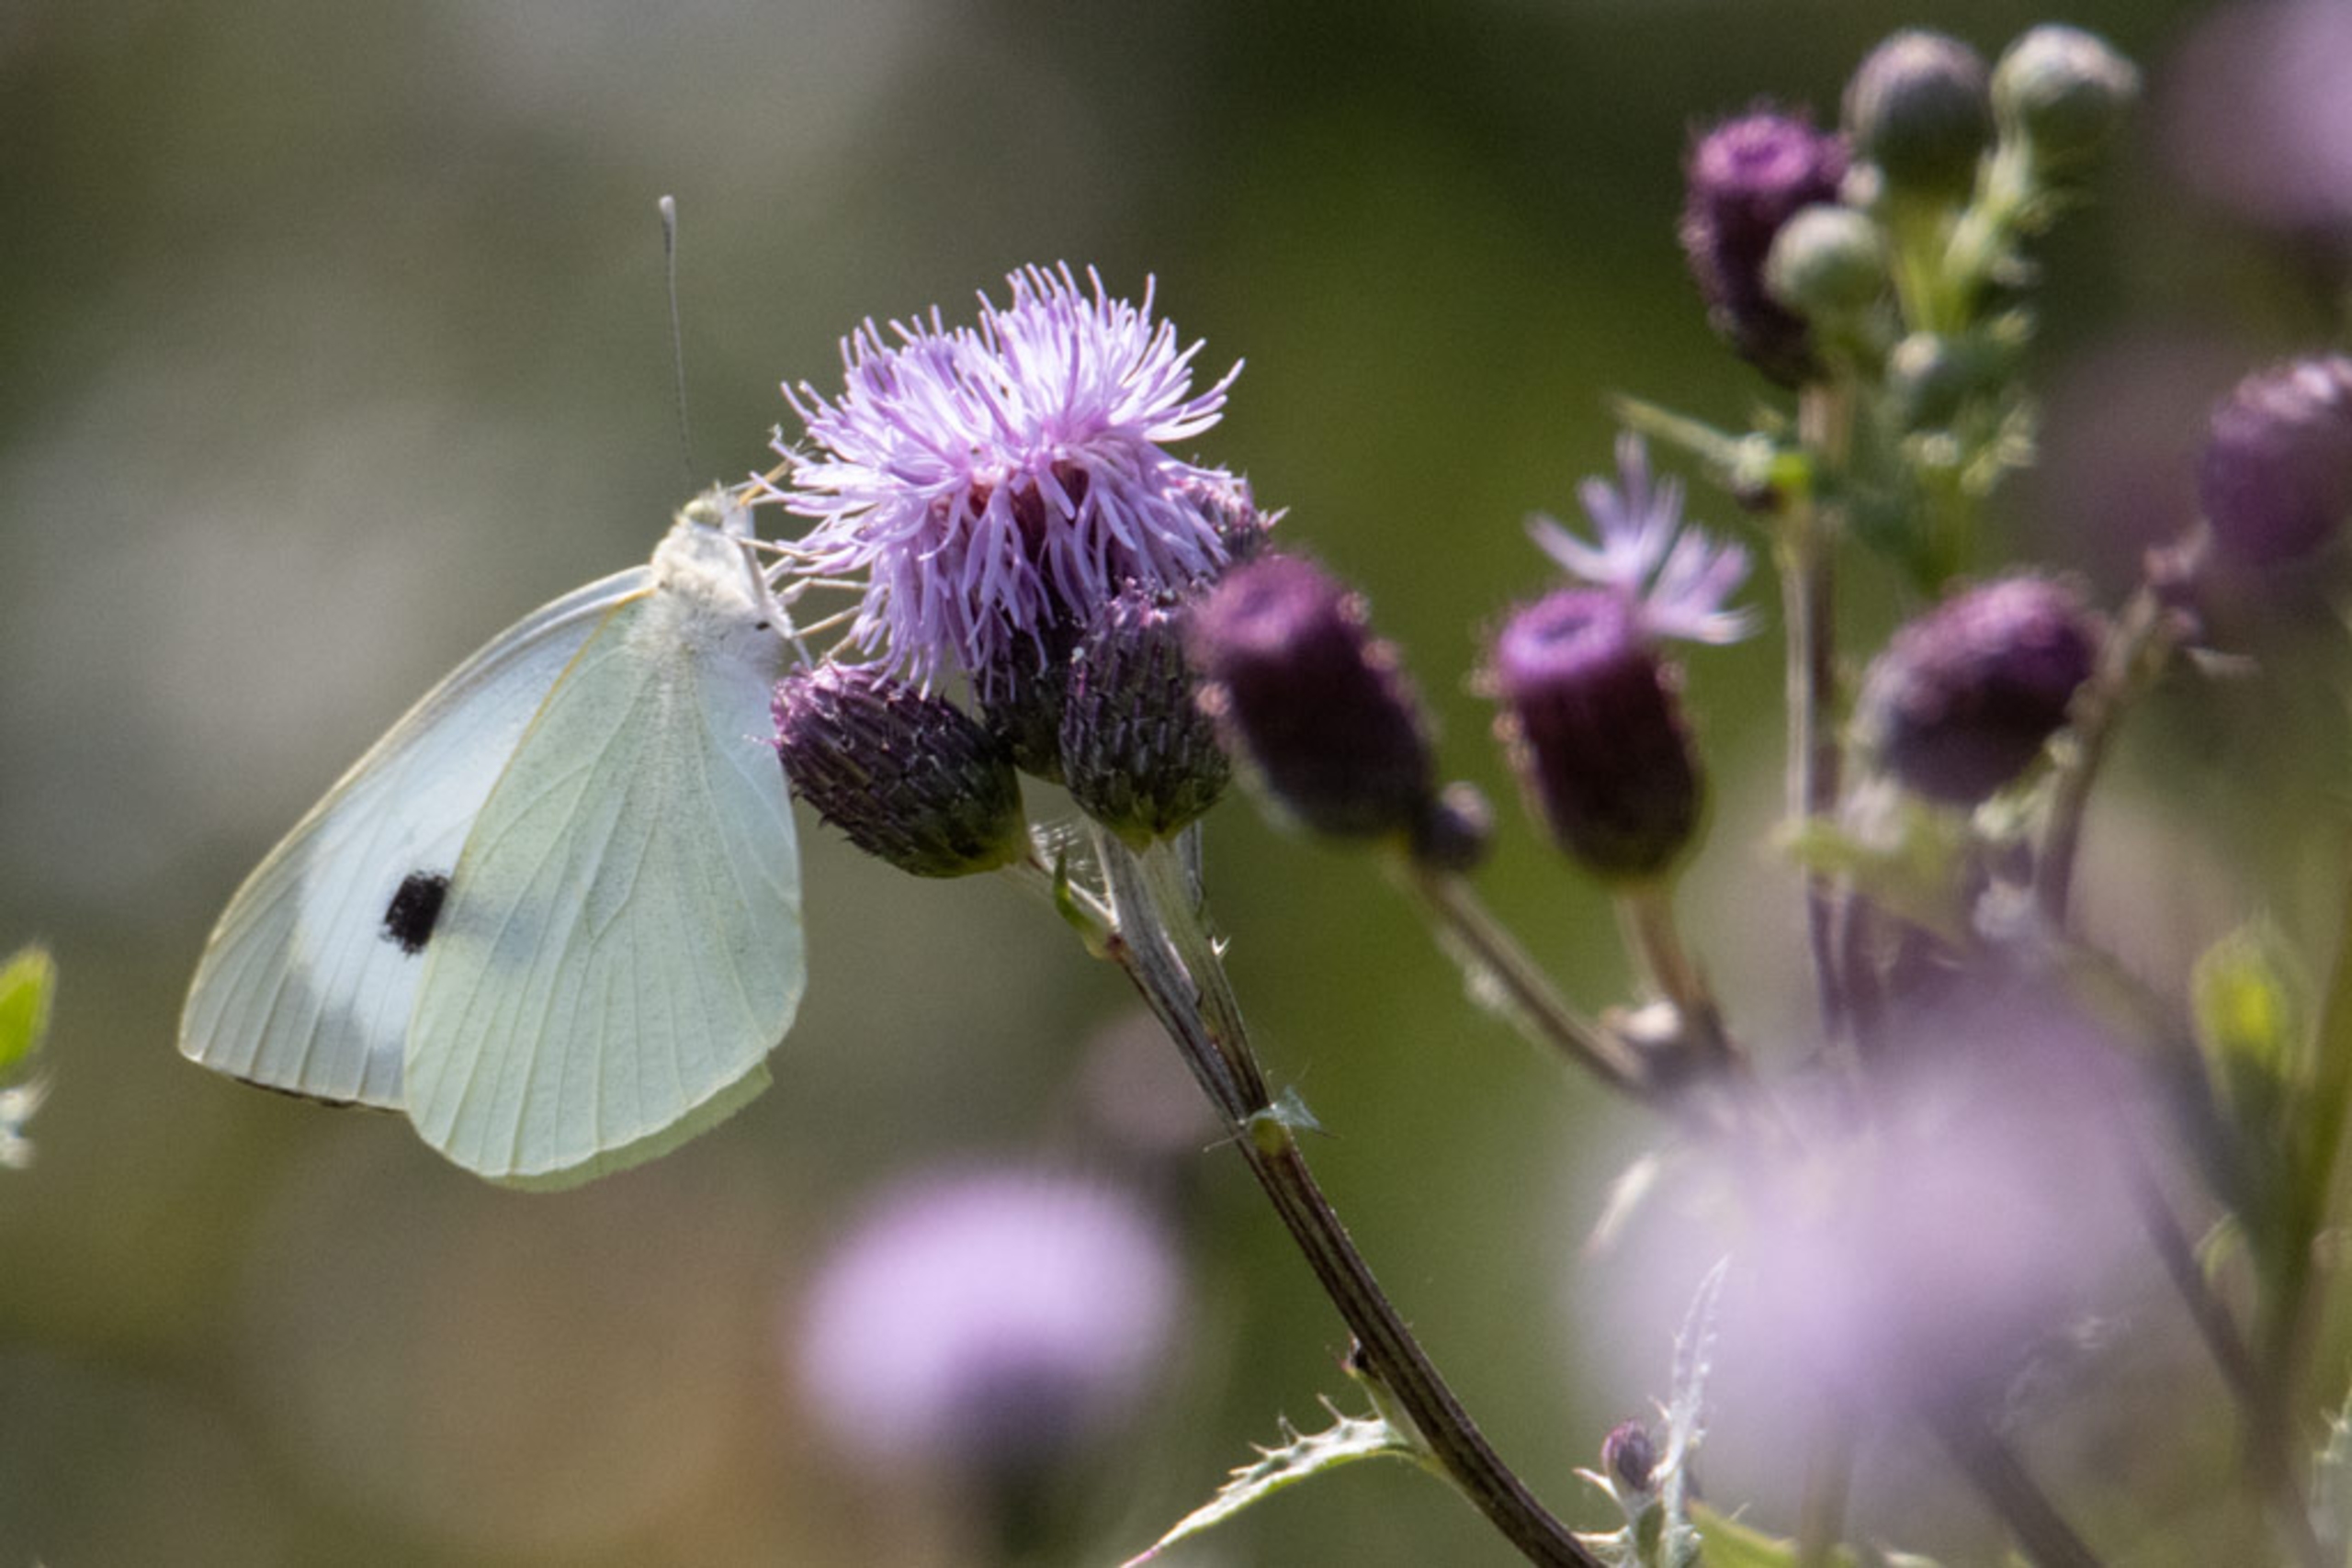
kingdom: Animalia
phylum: Arthropoda
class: Insecta
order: Lepidoptera
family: Pieridae
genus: Pieris
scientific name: Pieris brassicae
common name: Stor kålsommerfugl
